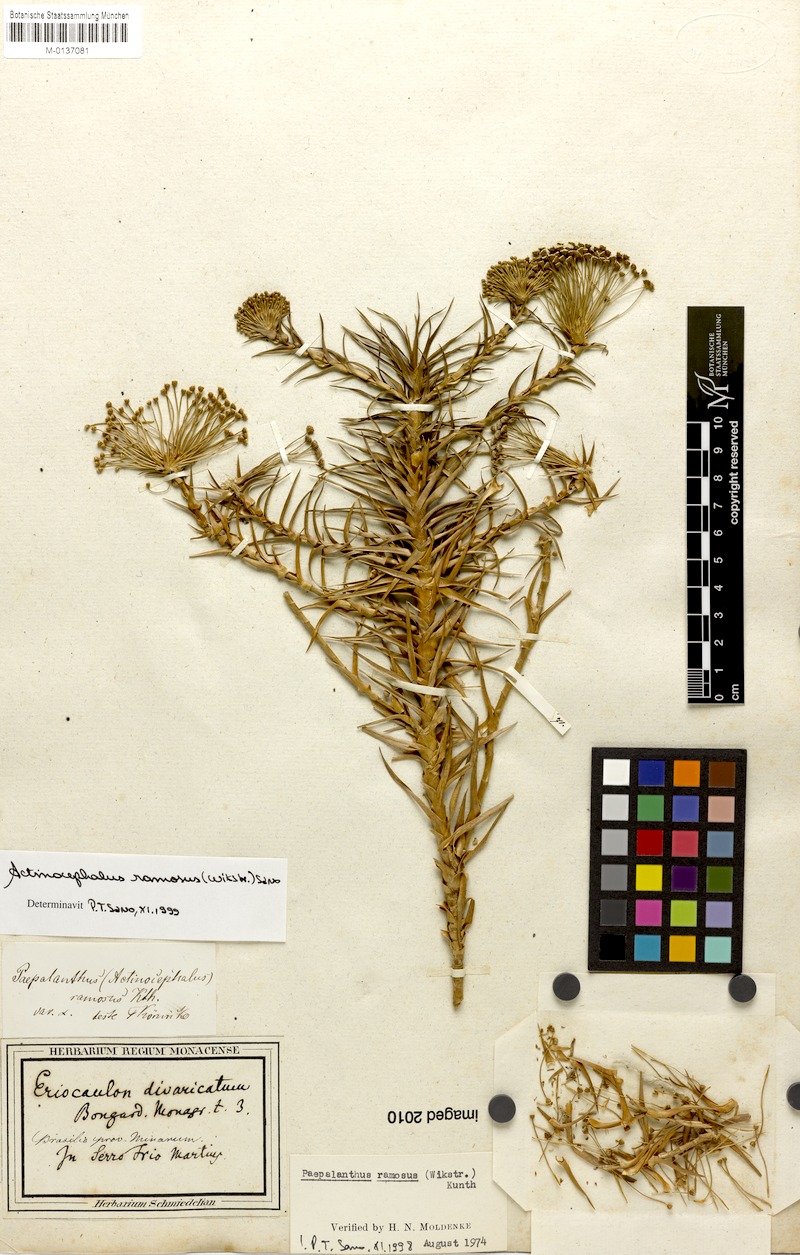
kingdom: Plantae
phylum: Tracheophyta
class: Liliopsida
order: Poales
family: Eriocaulaceae
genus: Paepalanthus
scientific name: Paepalanthus ramosus
